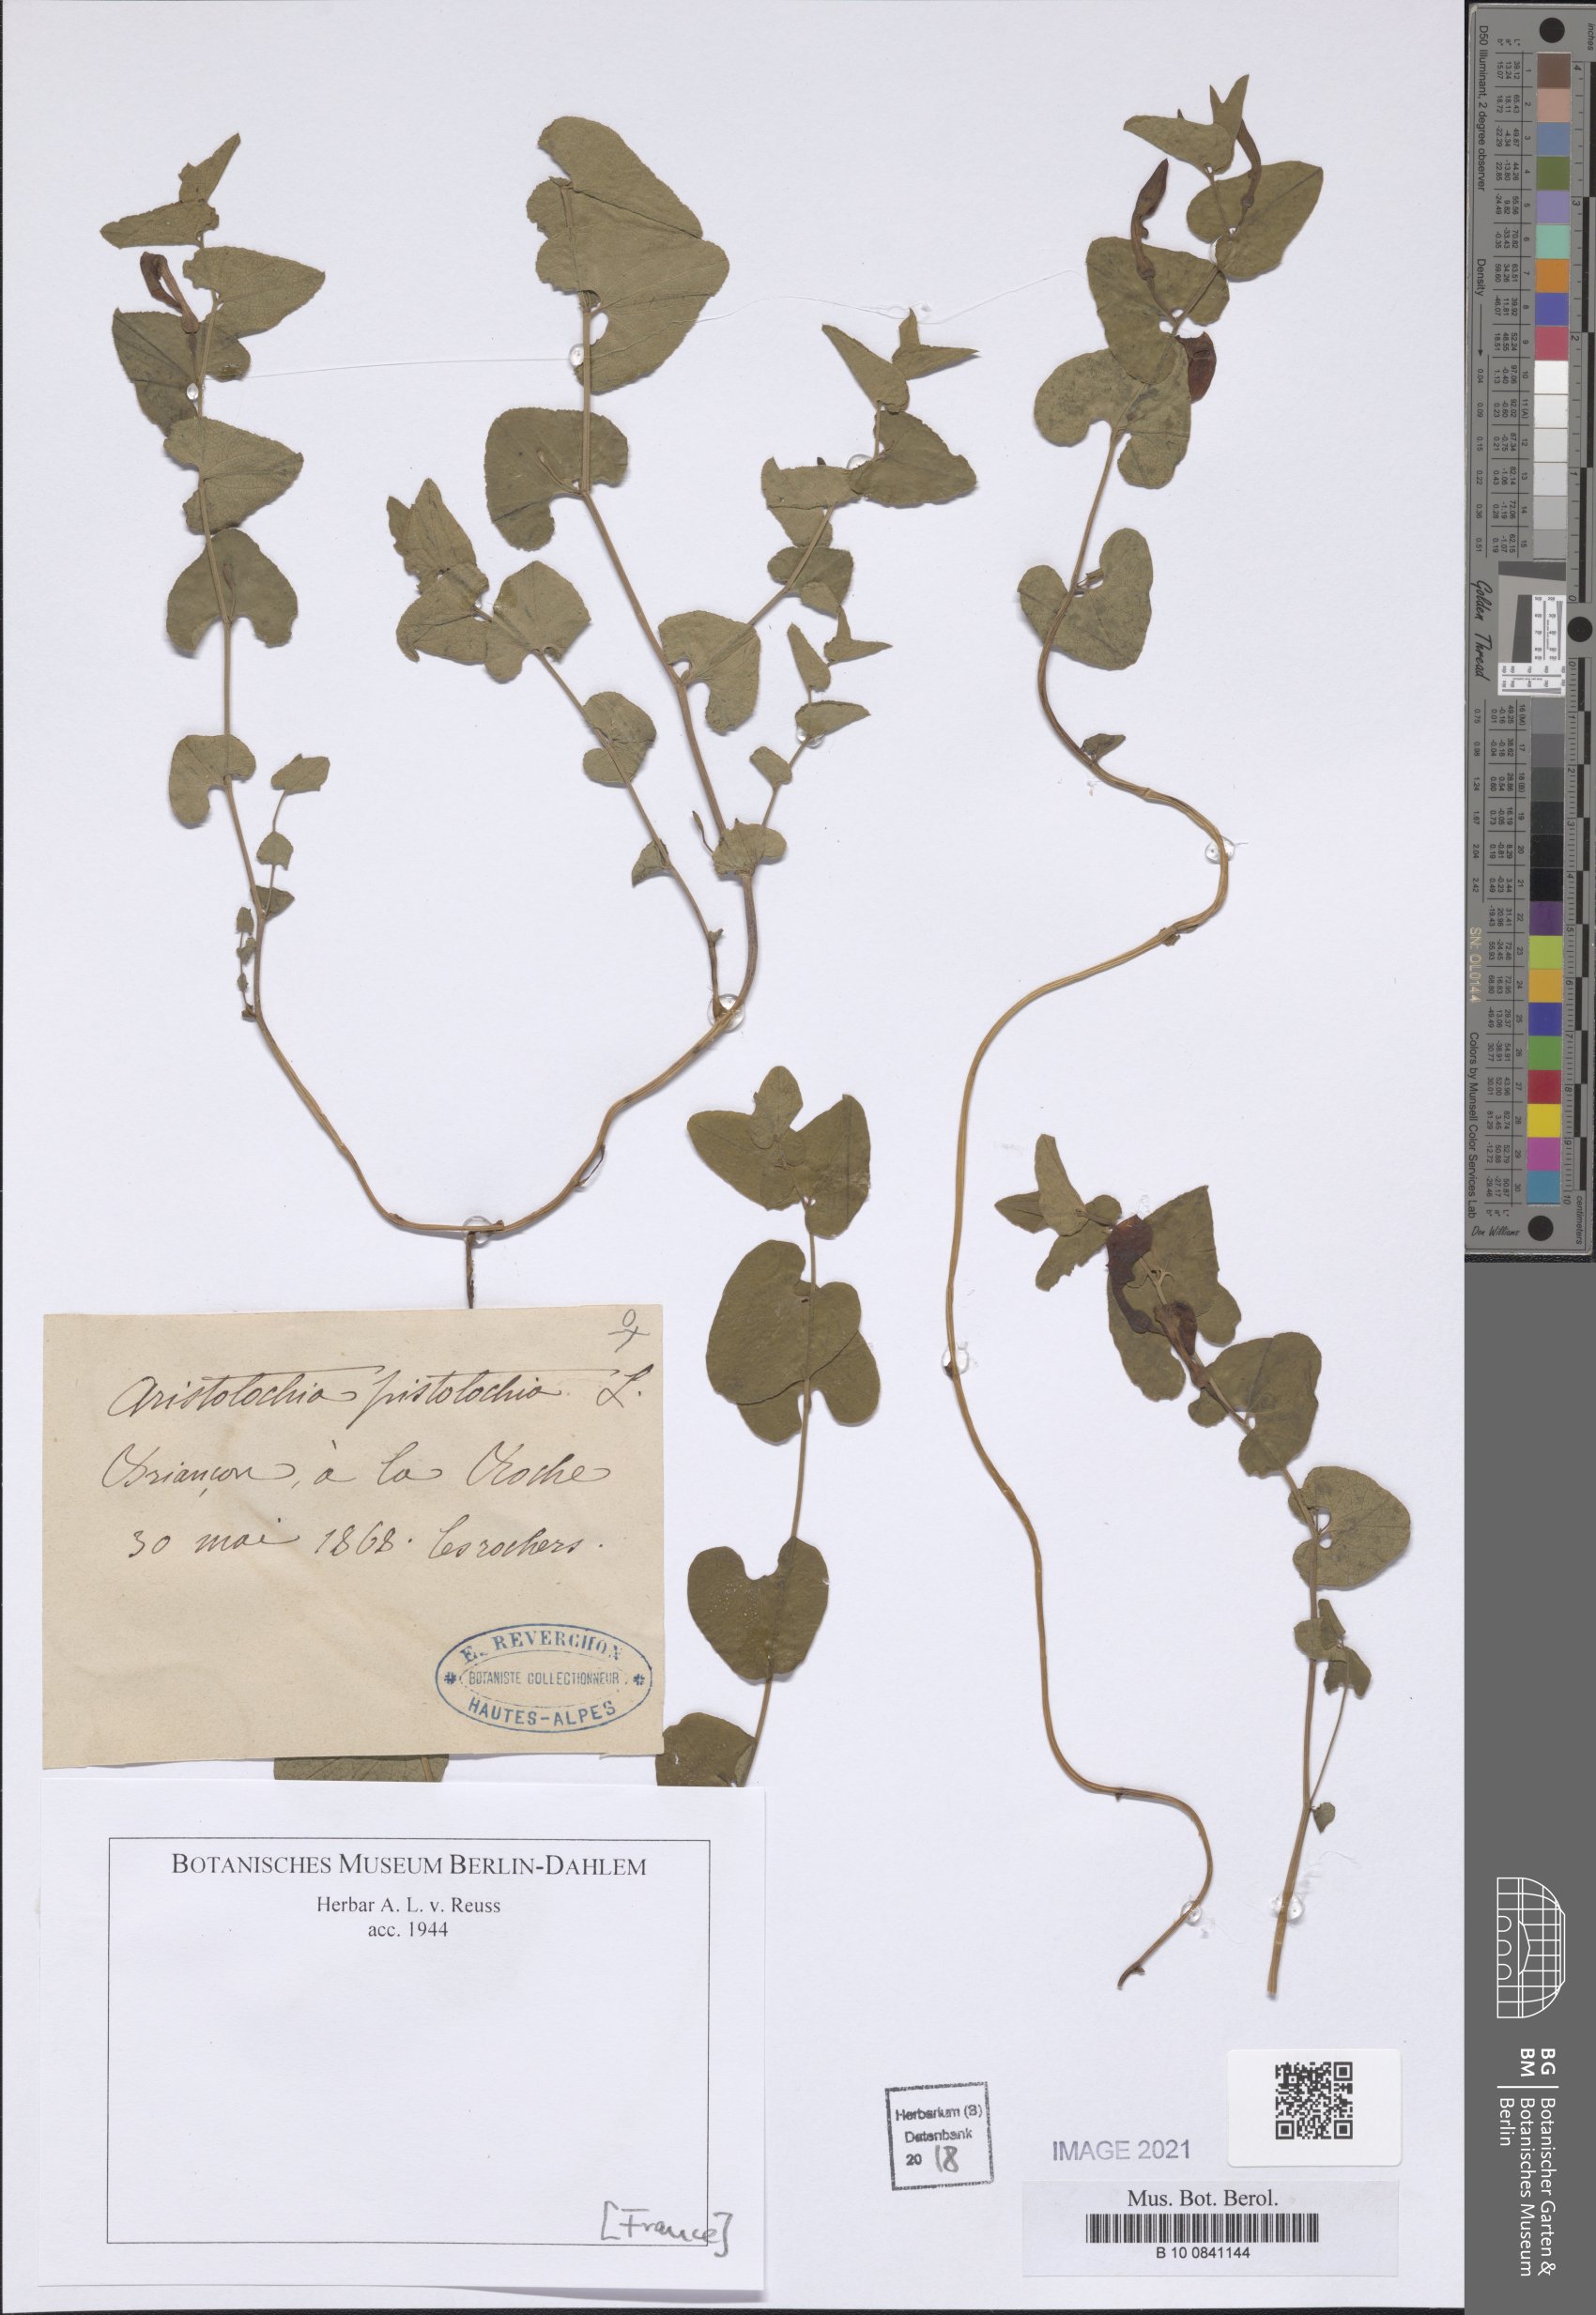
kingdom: Plantae
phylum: Tracheophyta
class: Magnoliopsida
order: Piperales
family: Aristolochiaceae
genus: Aristolochia
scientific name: Aristolochia pistolochia
